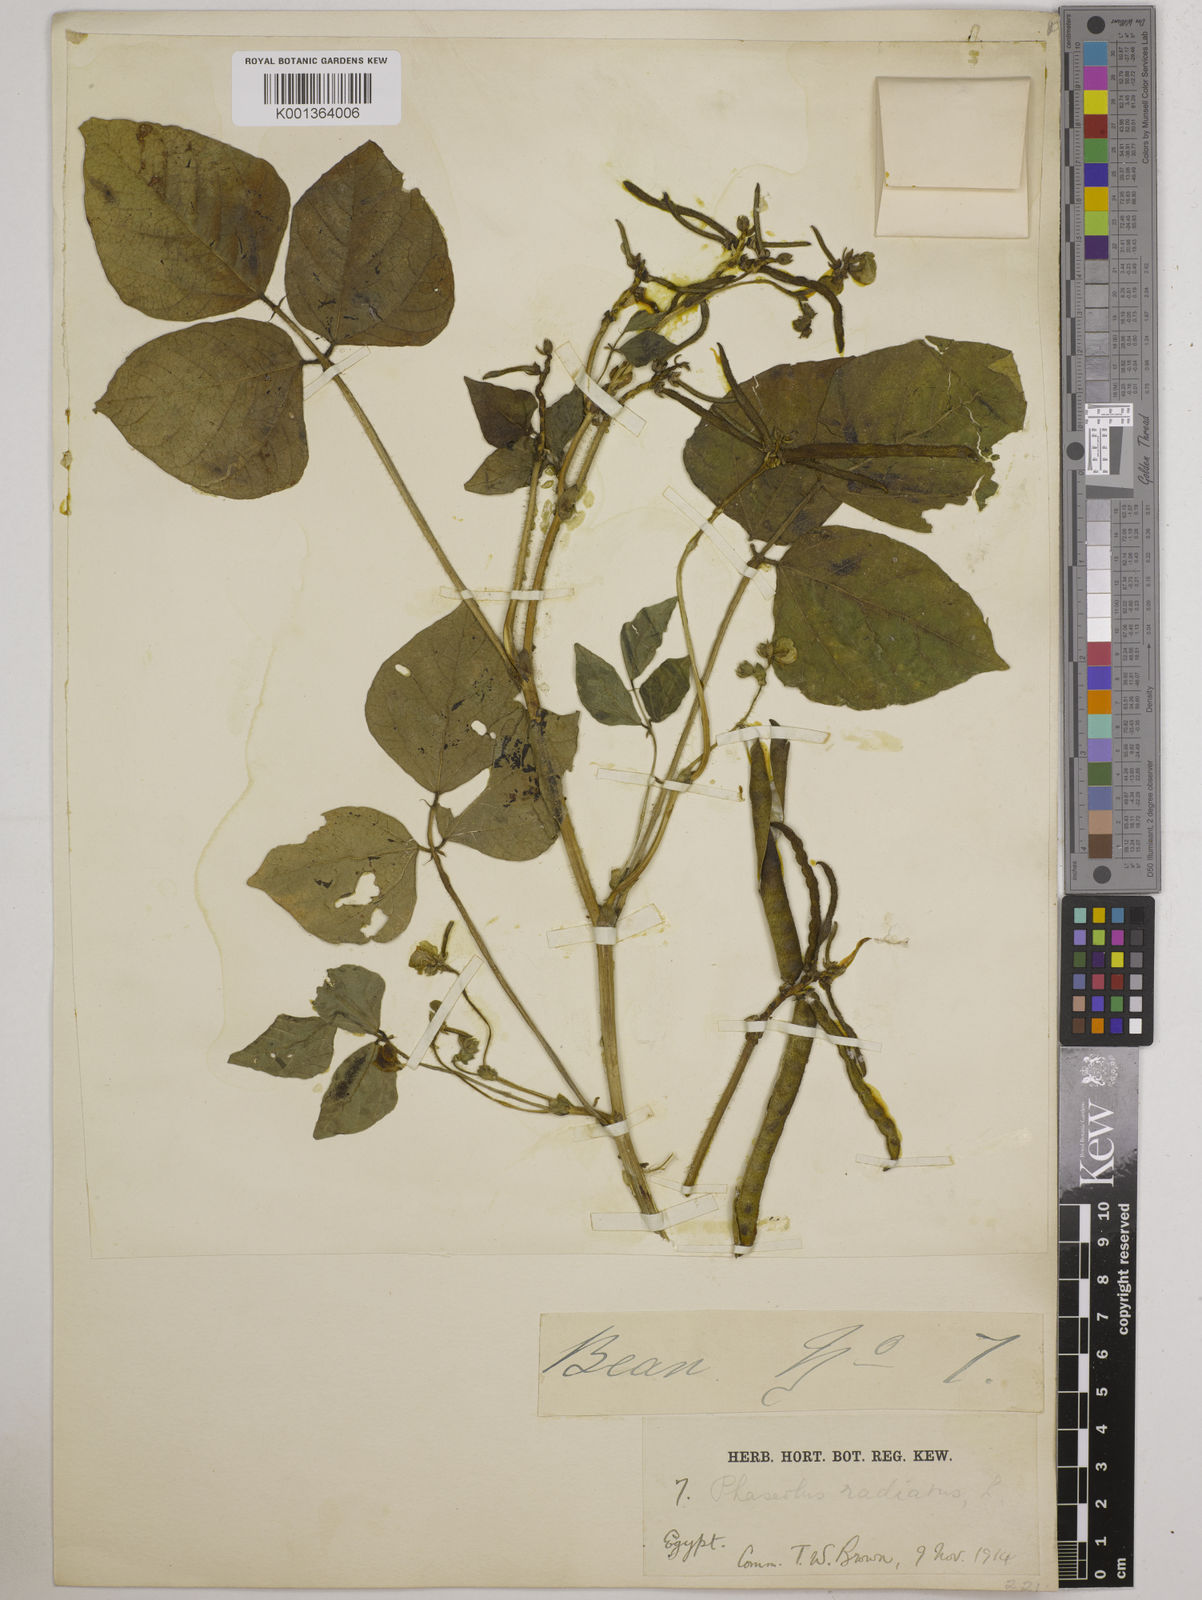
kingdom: Plantae
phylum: Tracheophyta
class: Magnoliopsida
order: Fabales
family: Fabaceae
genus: Vigna
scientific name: Vigna radiata
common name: Mung-bean
